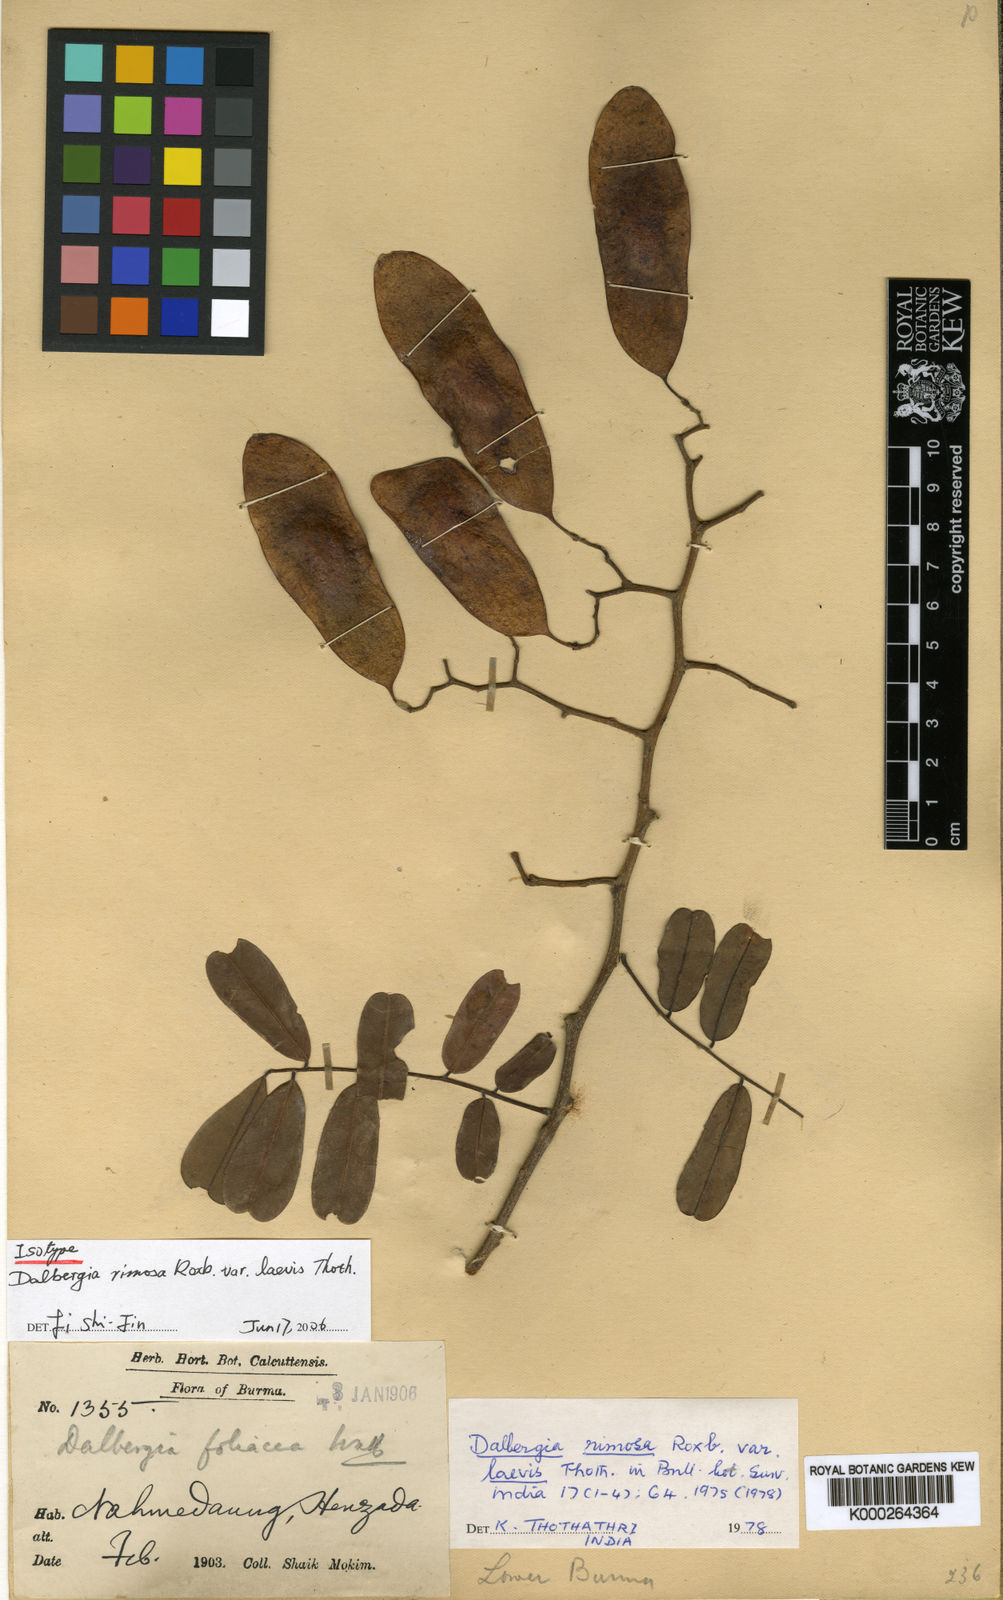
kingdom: Plantae
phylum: Tracheophyta
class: Magnoliopsida
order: Fabales
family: Fabaceae
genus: Dalbergia
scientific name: Dalbergia rimosa
